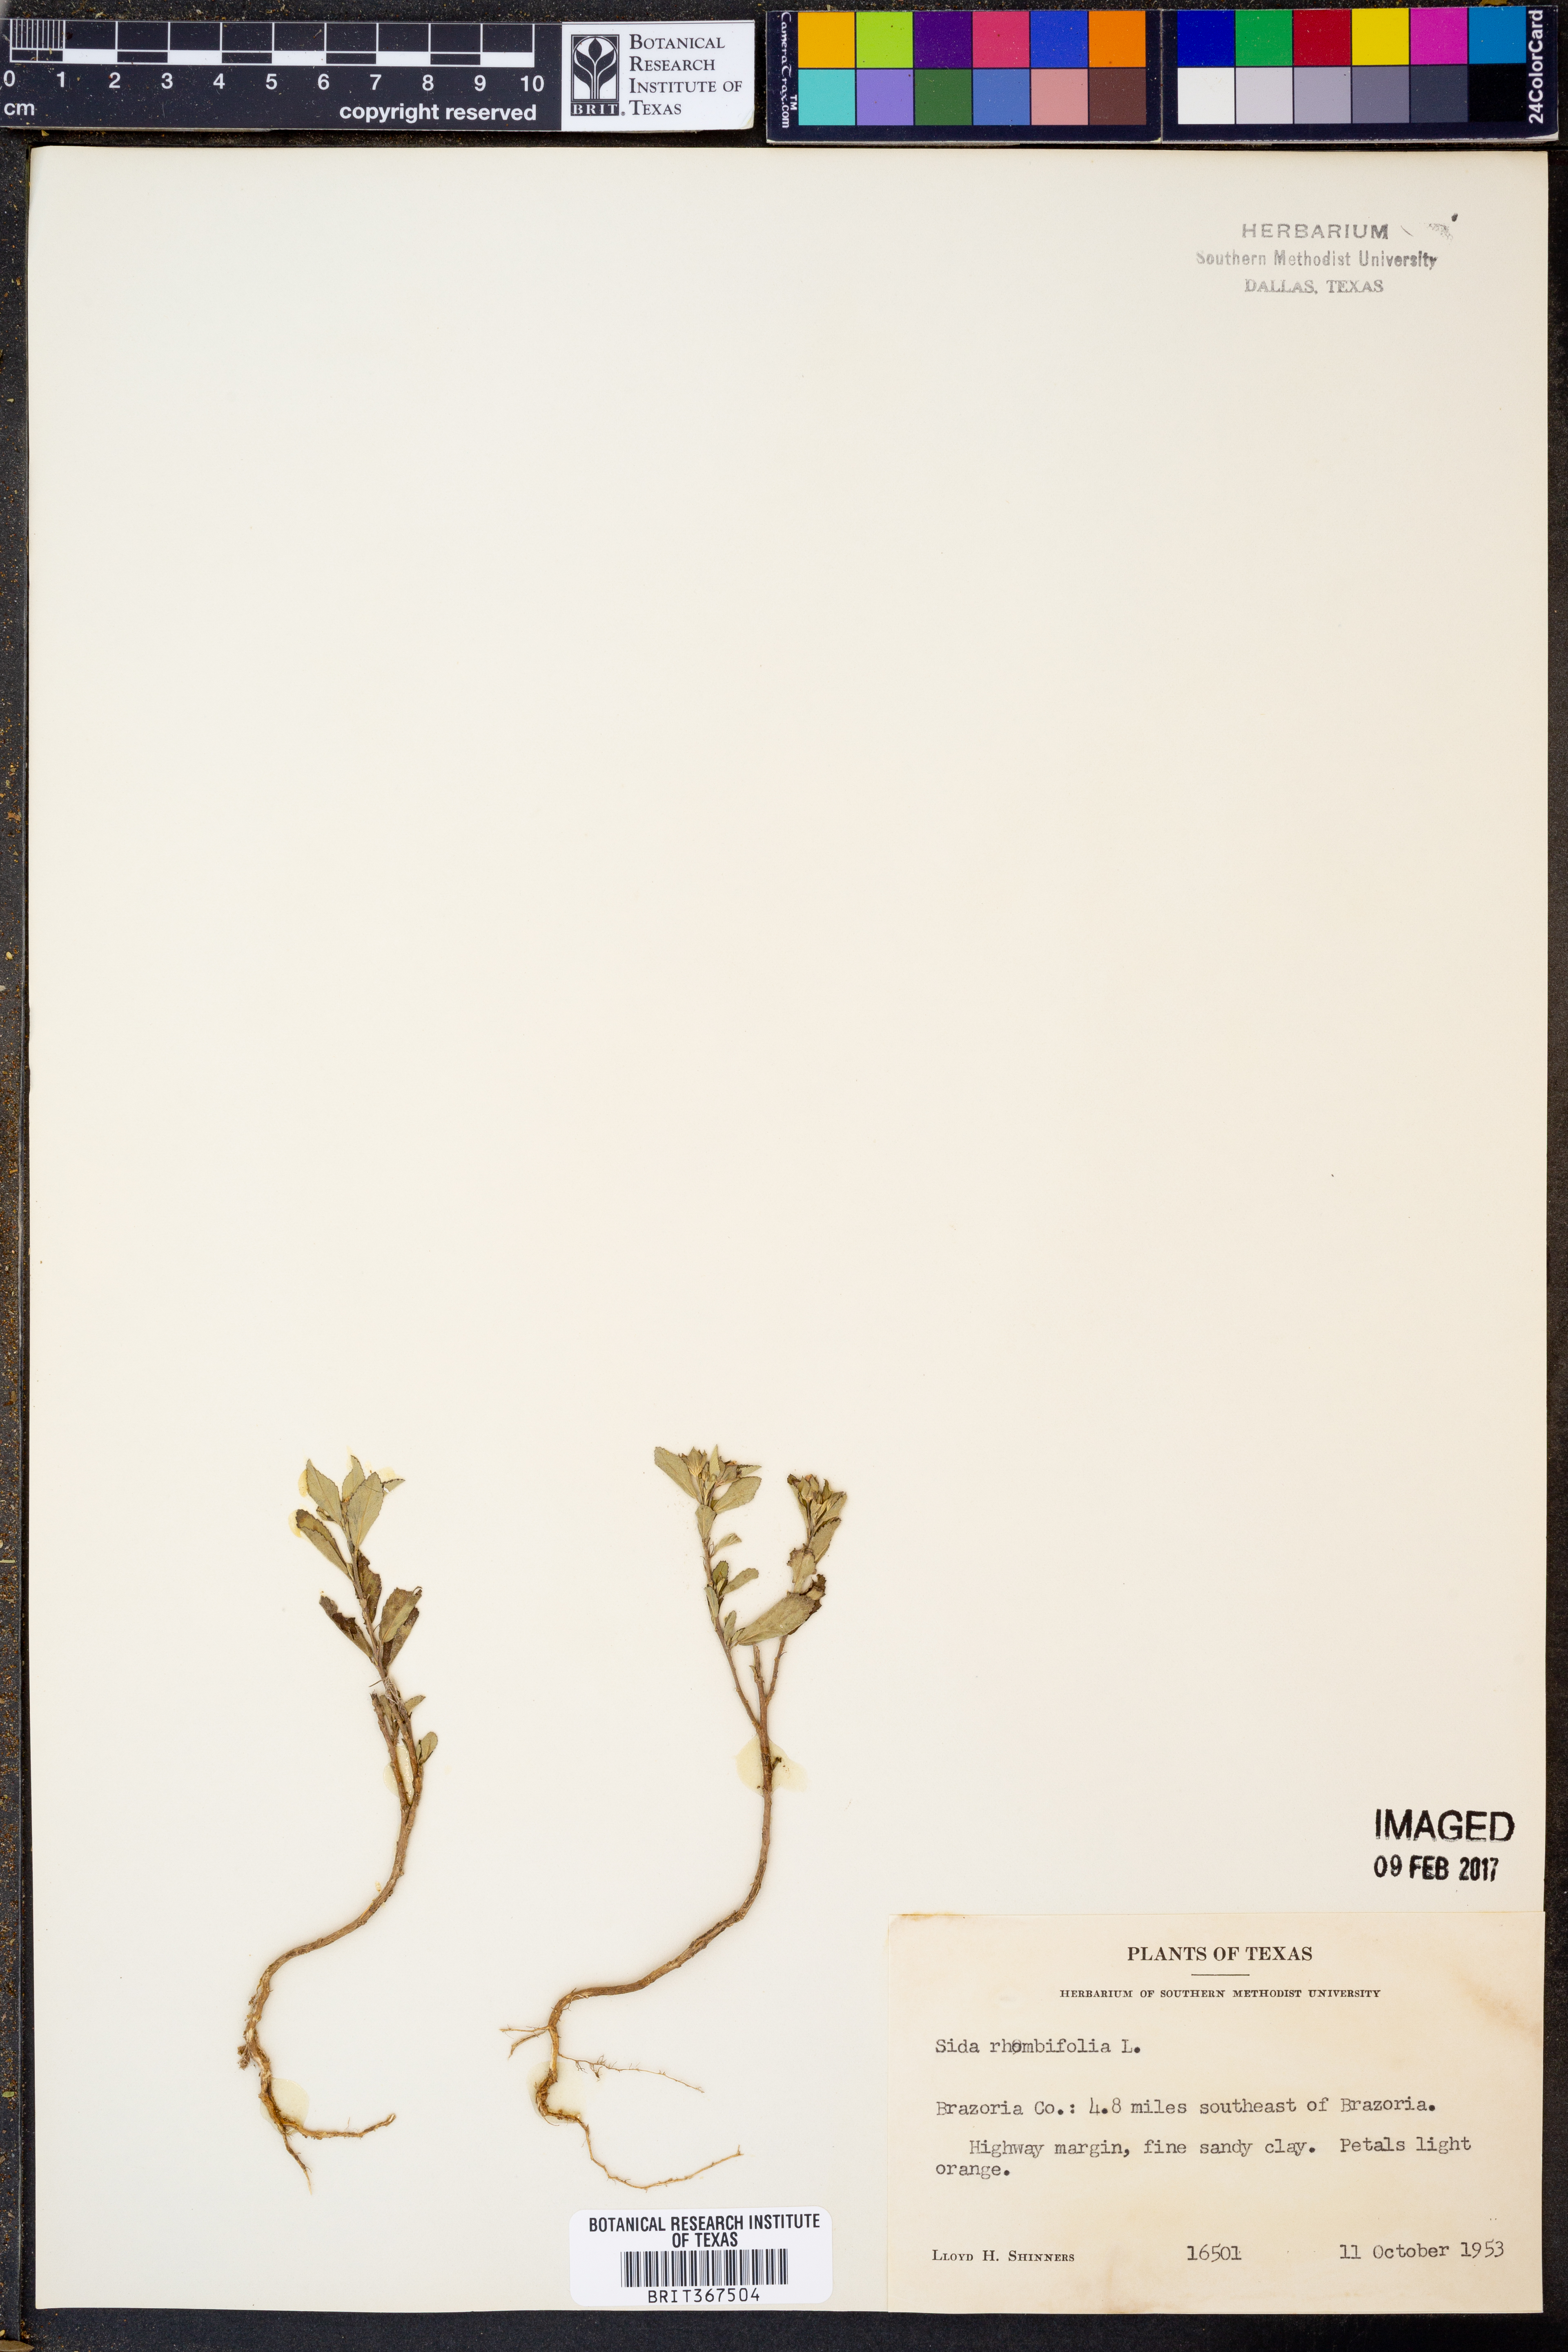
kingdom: Plantae
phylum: Tracheophyta
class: Magnoliopsida
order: Malvales
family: Malvaceae
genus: Sida
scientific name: Sida rhombifolia
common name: Queensland-hemp
